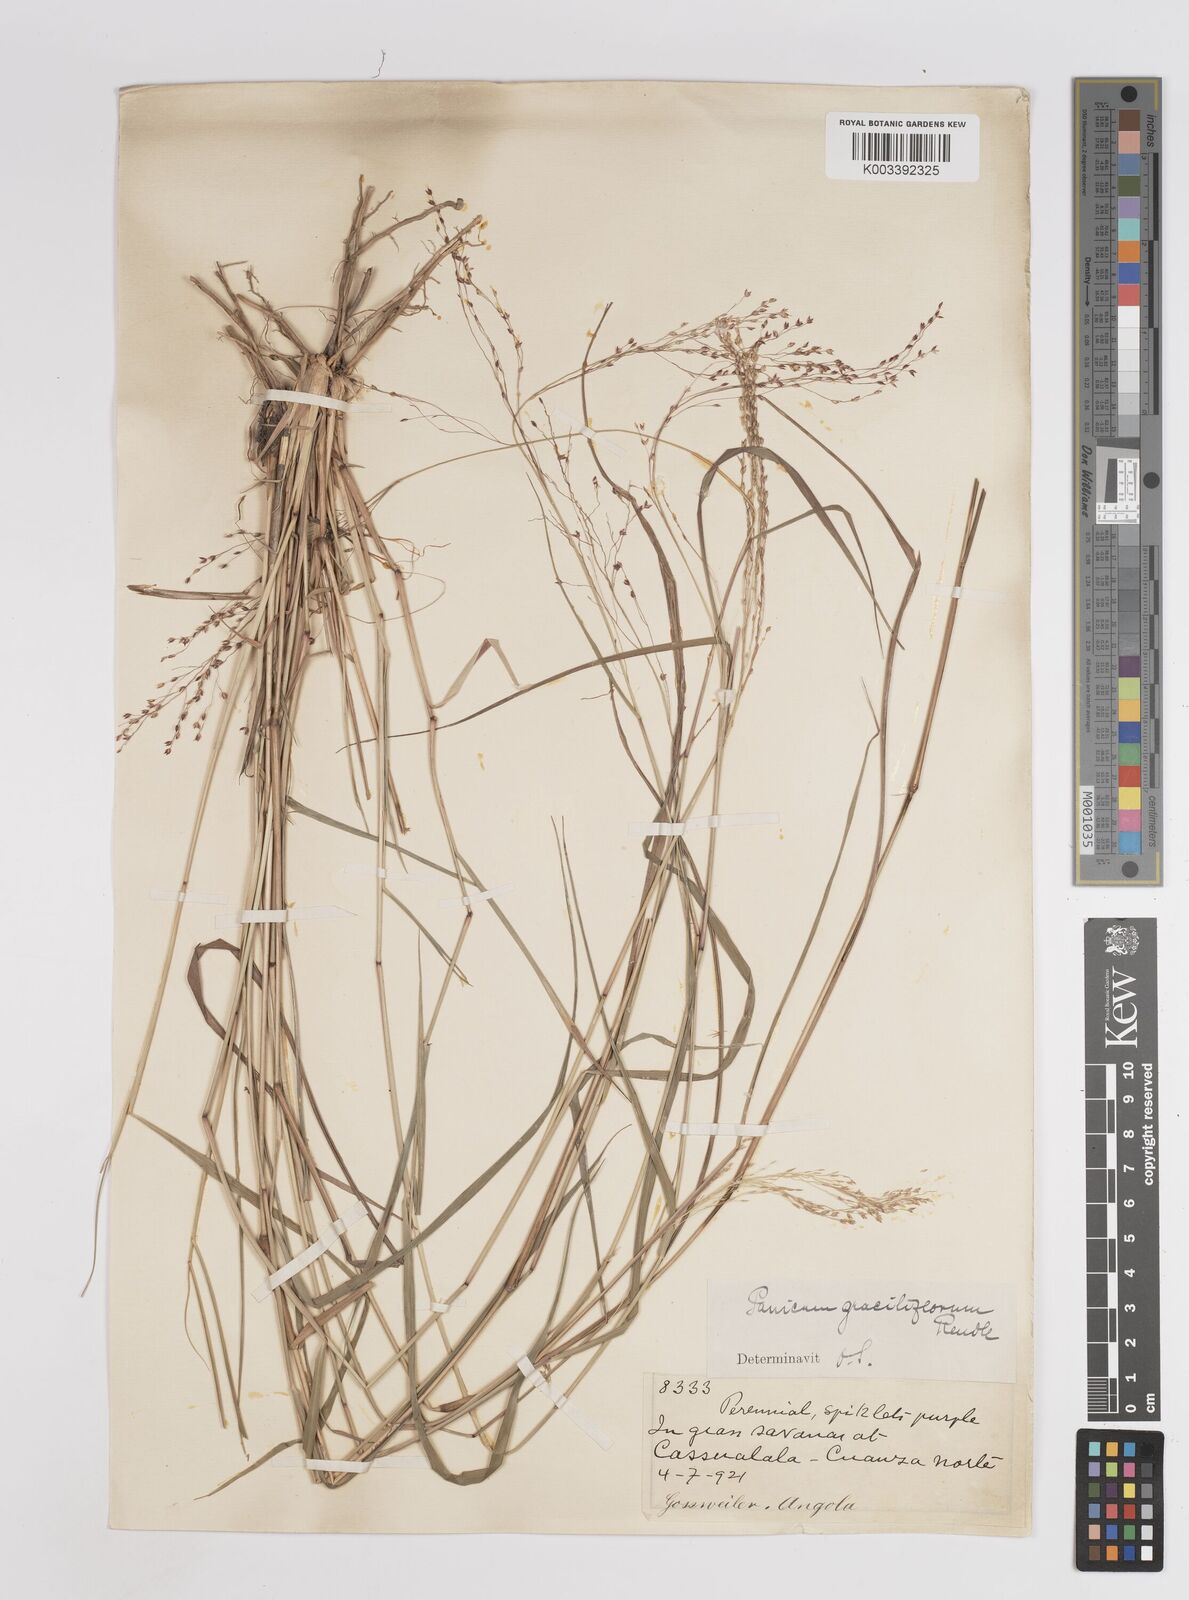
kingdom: Plantae
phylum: Tracheophyta
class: Liliopsida
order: Poales
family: Poaceae
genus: Panicum
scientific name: Panicum fluviicola
